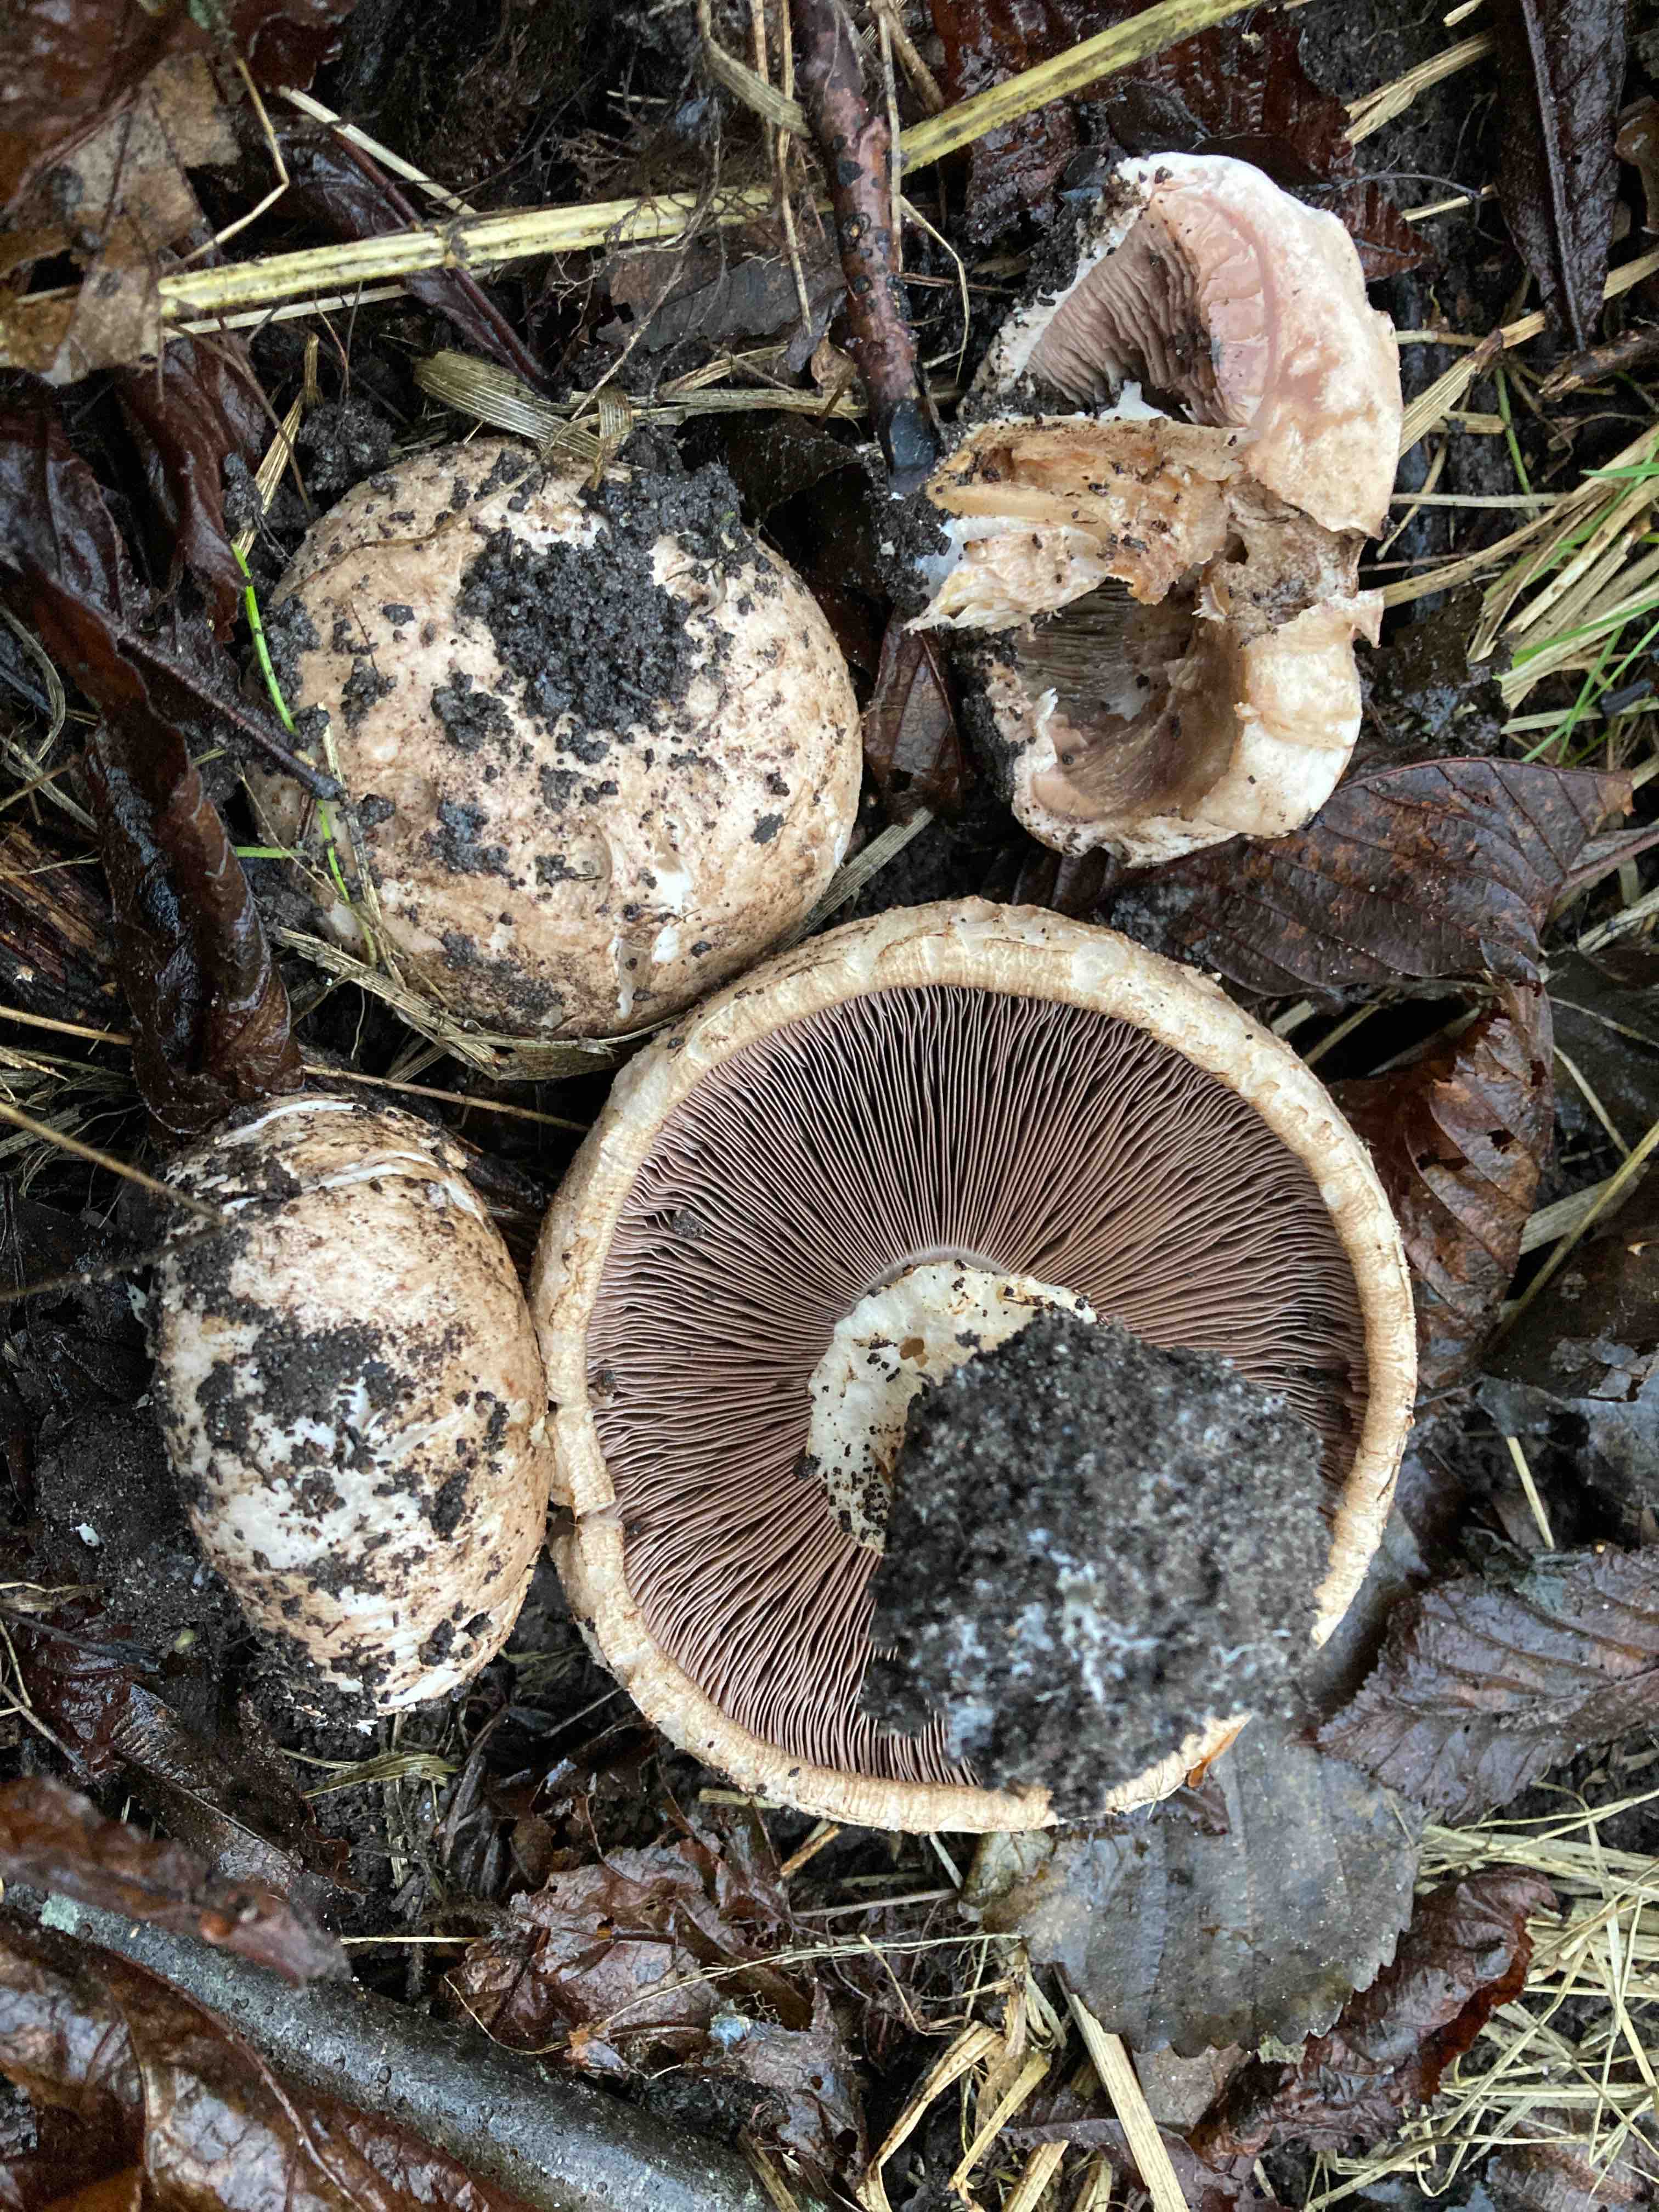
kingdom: Fungi
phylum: Basidiomycota
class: Agaricomycetes
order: Agaricales
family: Agaricaceae
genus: Agaricus
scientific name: Agaricus
